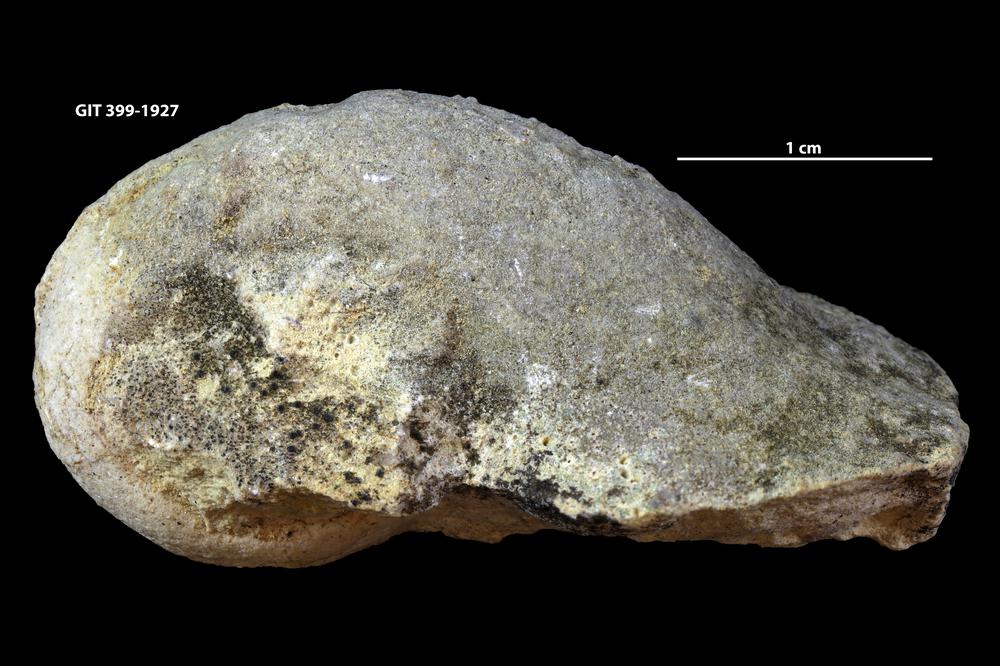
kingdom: Animalia
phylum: Mollusca
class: Gastropoda
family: Lophospiridae
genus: Lophospira
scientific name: Lophospira
